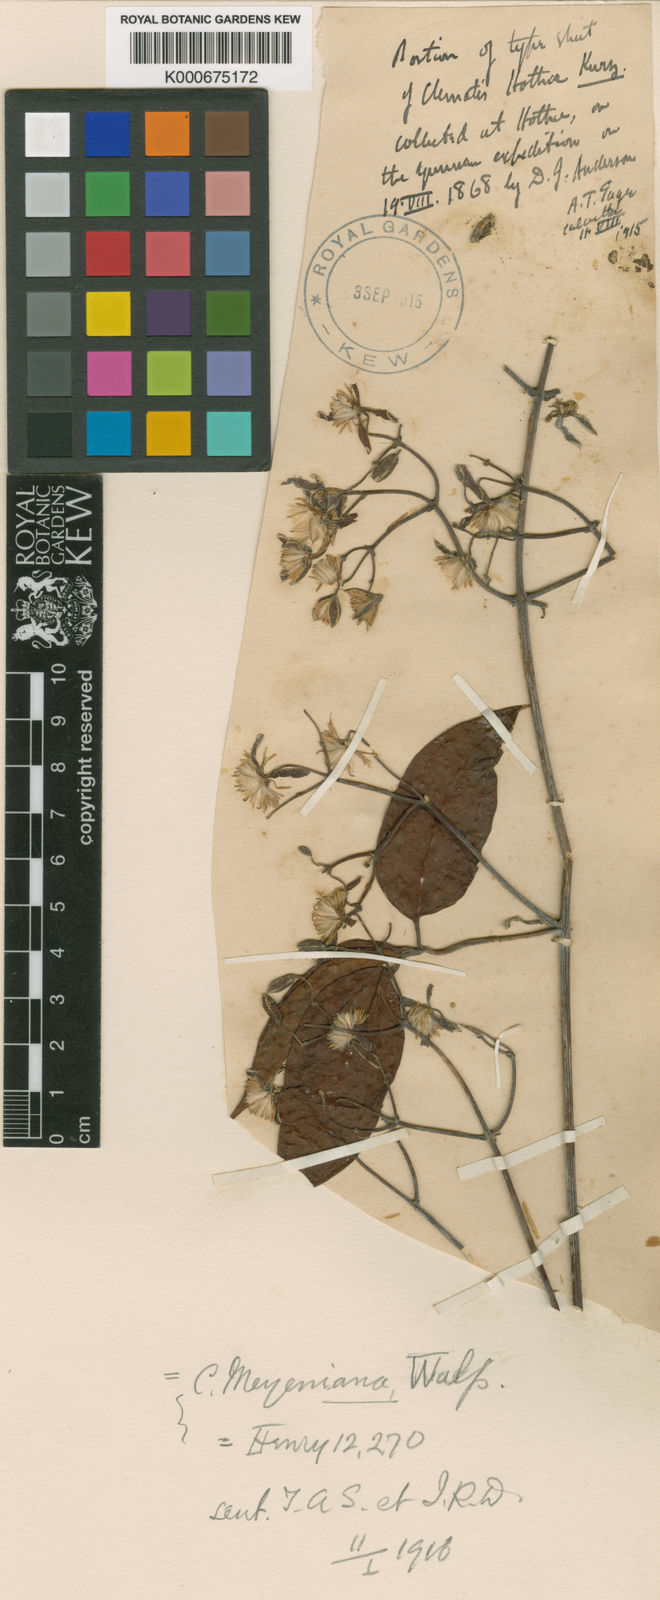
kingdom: Plantae
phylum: Tracheophyta
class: Magnoliopsida
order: Ranunculales
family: Ranunculaceae
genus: Clematis
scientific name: Clematis hothae
